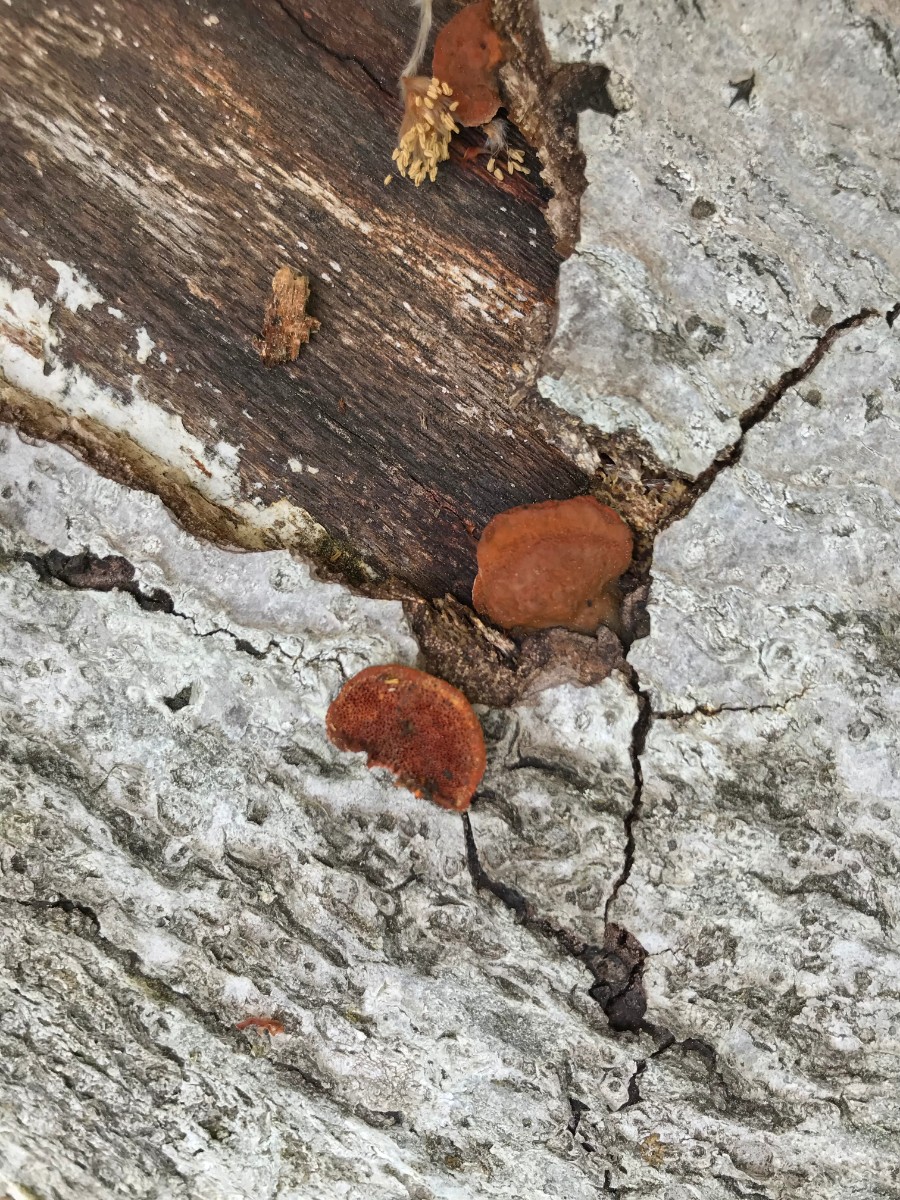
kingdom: Fungi
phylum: Basidiomycota
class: Agaricomycetes
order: Polyporales
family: Polyporaceae
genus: Trametes
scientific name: Trametes cinnabarina
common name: cinnoberporesvamp
